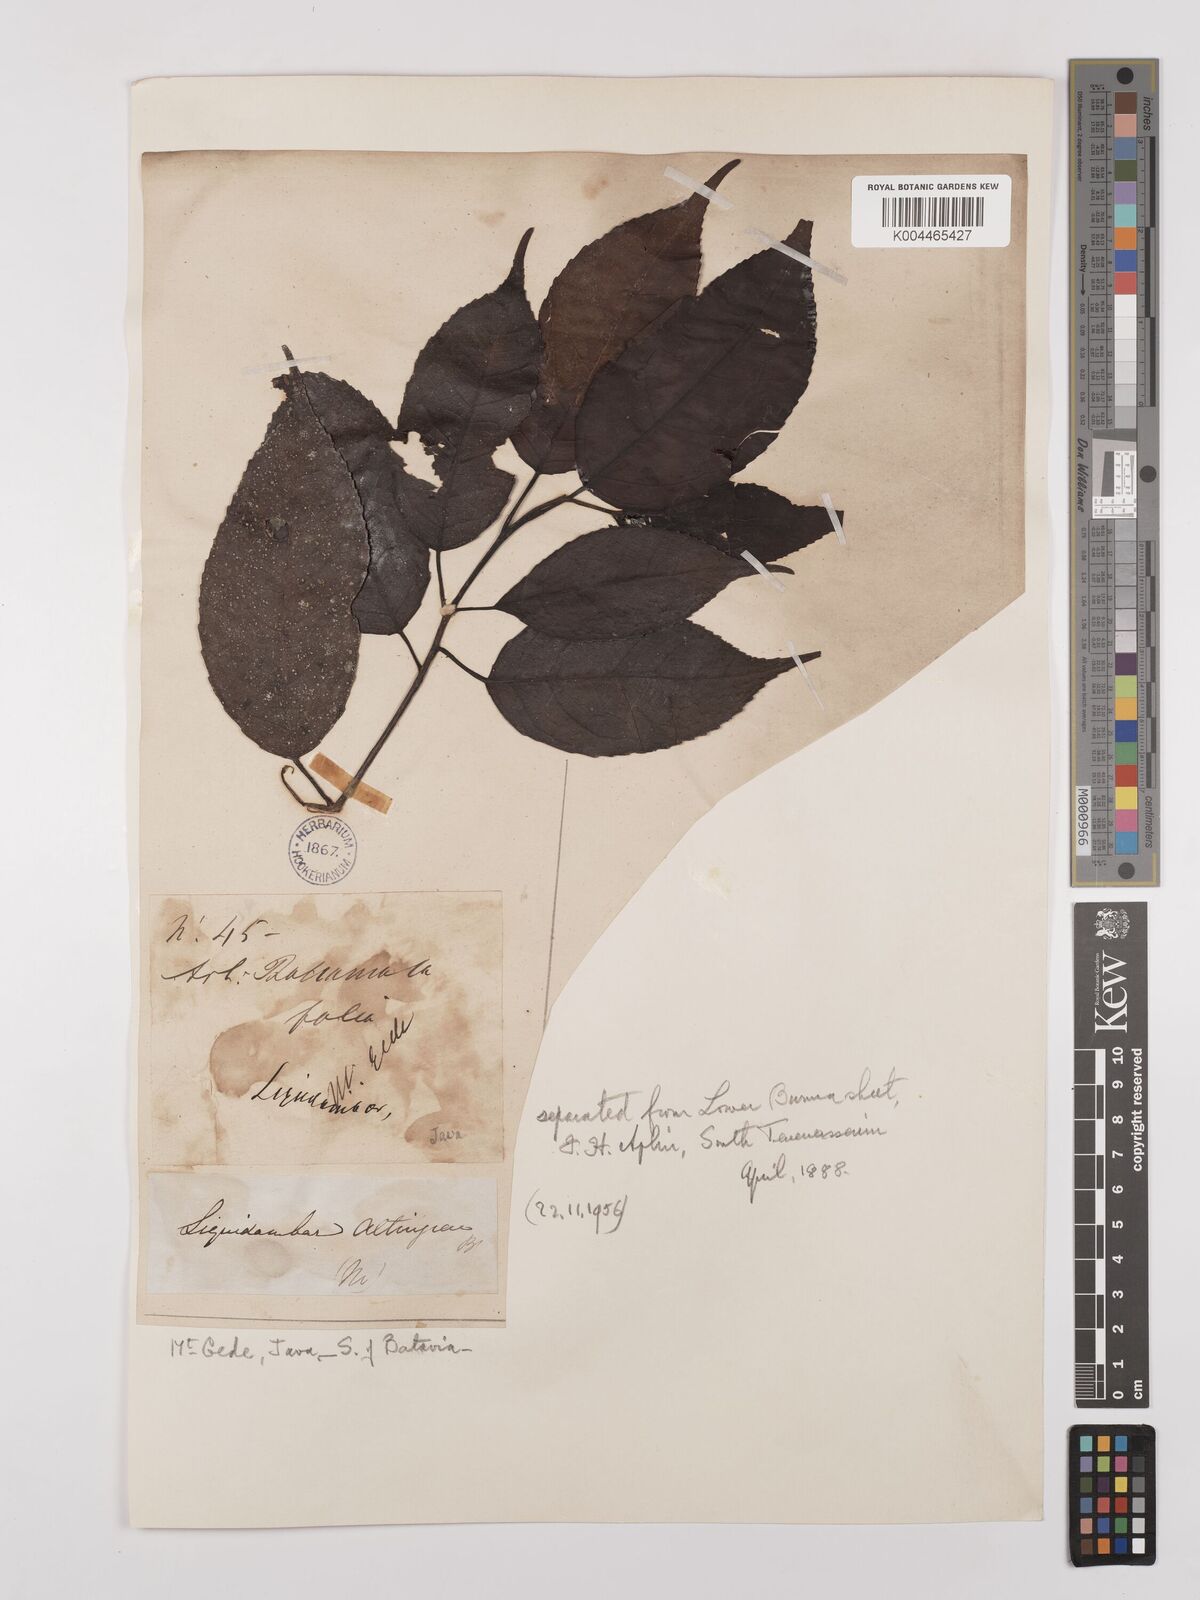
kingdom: Plantae
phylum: Tracheophyta
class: Magnoliopsida
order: Saxifragales
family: Altingiaceae
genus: Liquidambar
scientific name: Liquidambar excelsa
